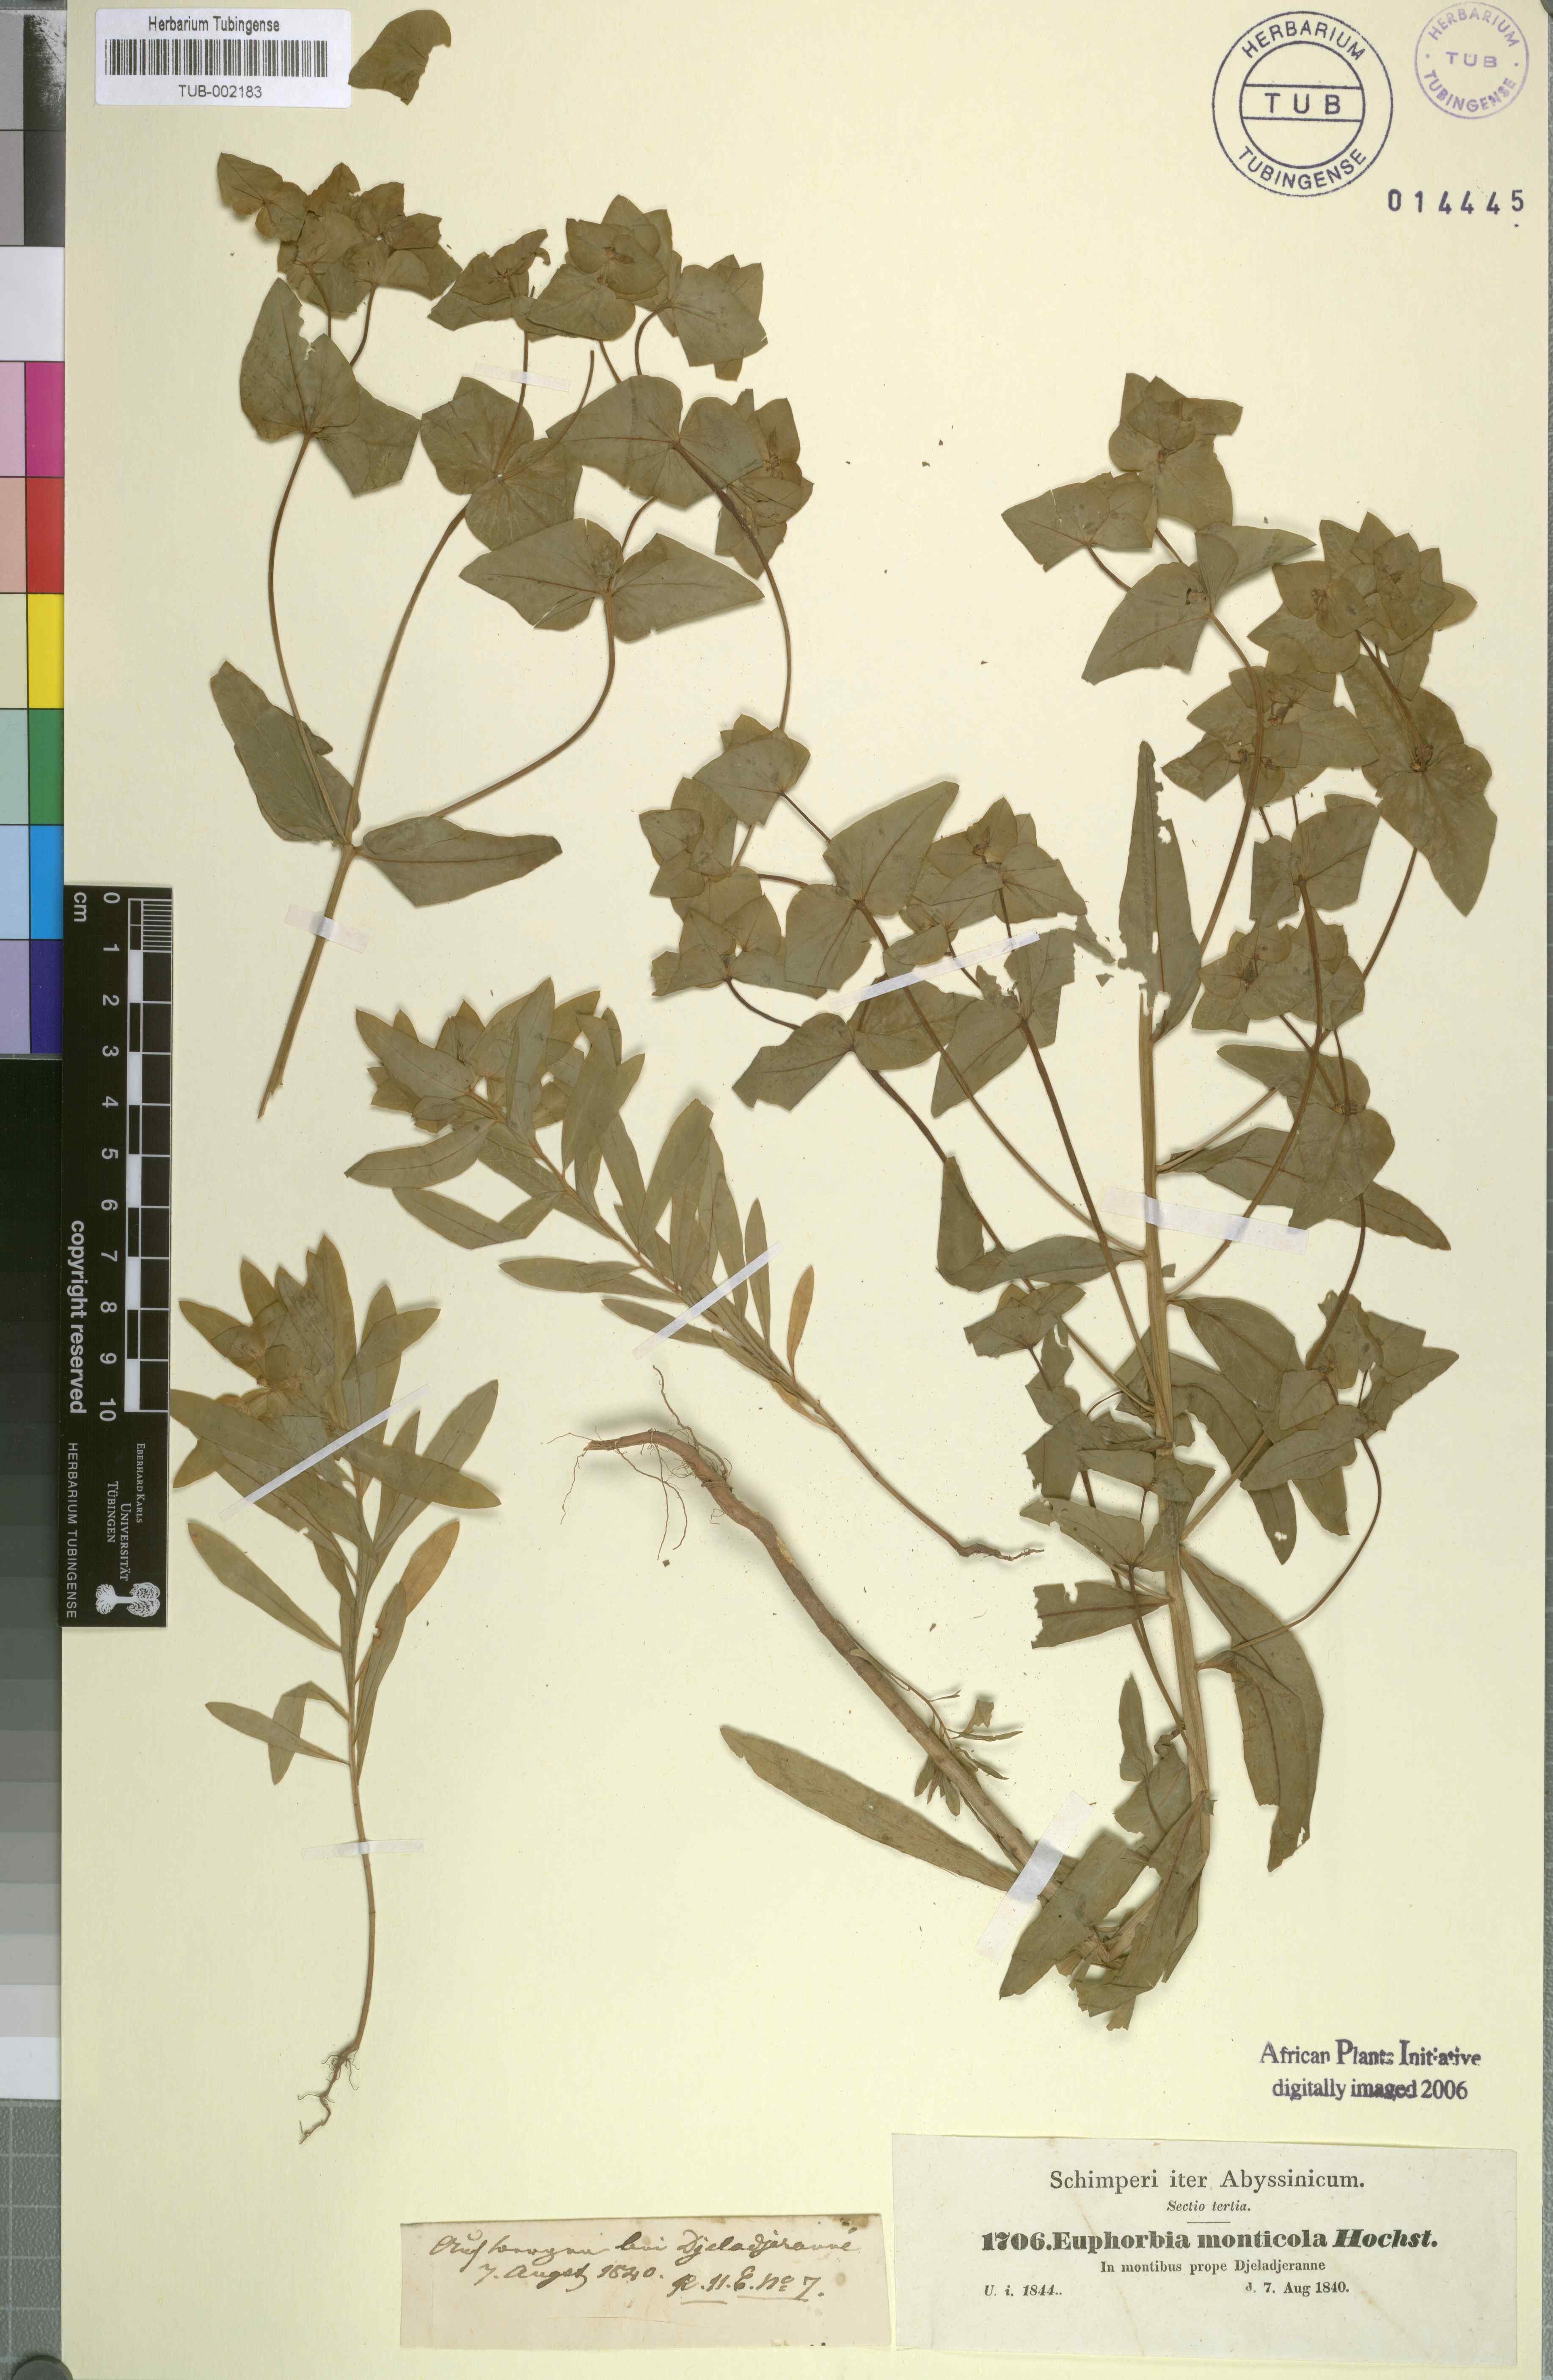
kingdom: Plantae
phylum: Tracheophyta
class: Magnoliopsida
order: Malpighiales
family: Euphorbiaceae
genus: Euphorbia
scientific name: Euphorbia schimperiana
